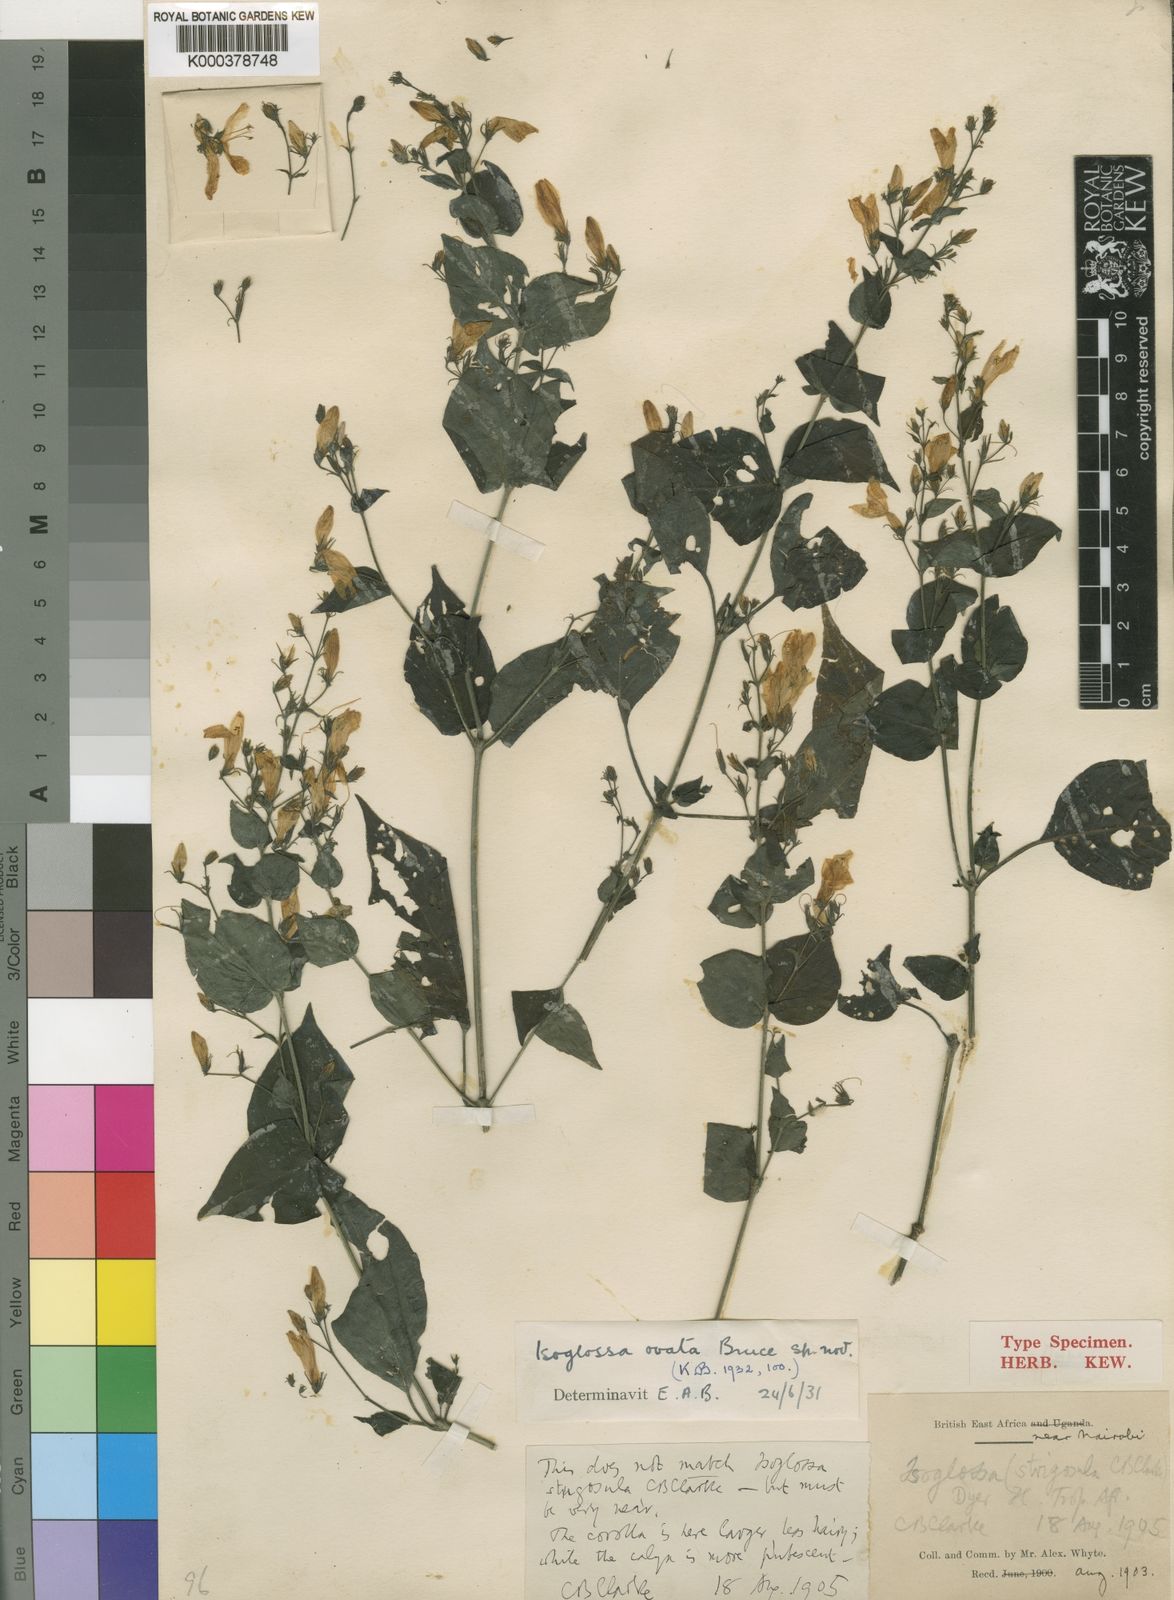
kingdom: Plantae
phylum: Tracheophyta
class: Magnoliopsida
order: Lamiales
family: Acanthaceae
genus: Isoglossa
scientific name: Isoglossa bruceae
